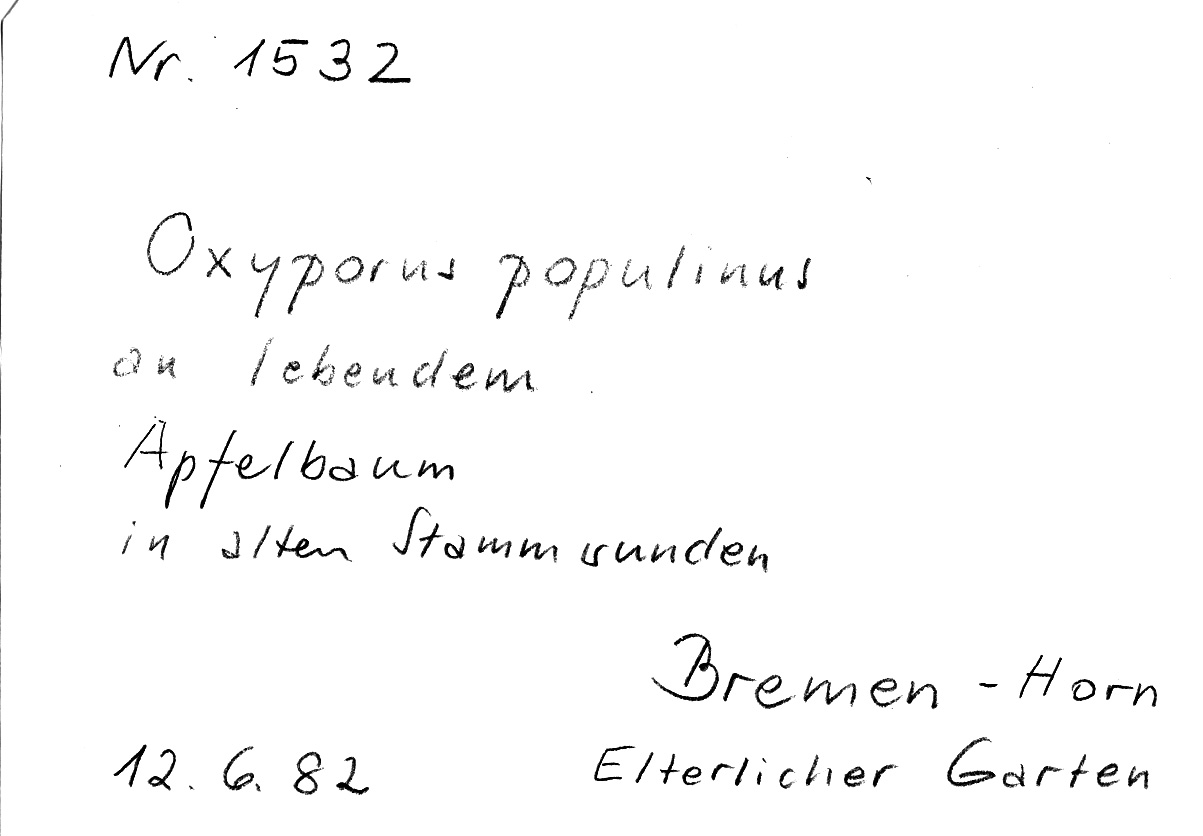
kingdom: Fungi
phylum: Basidiomycota
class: Agaricomycetes
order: Hymenochaetales
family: Oxyporaceae
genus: Oxyporus
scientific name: Oxyporus populinus
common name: Poplar bracket
